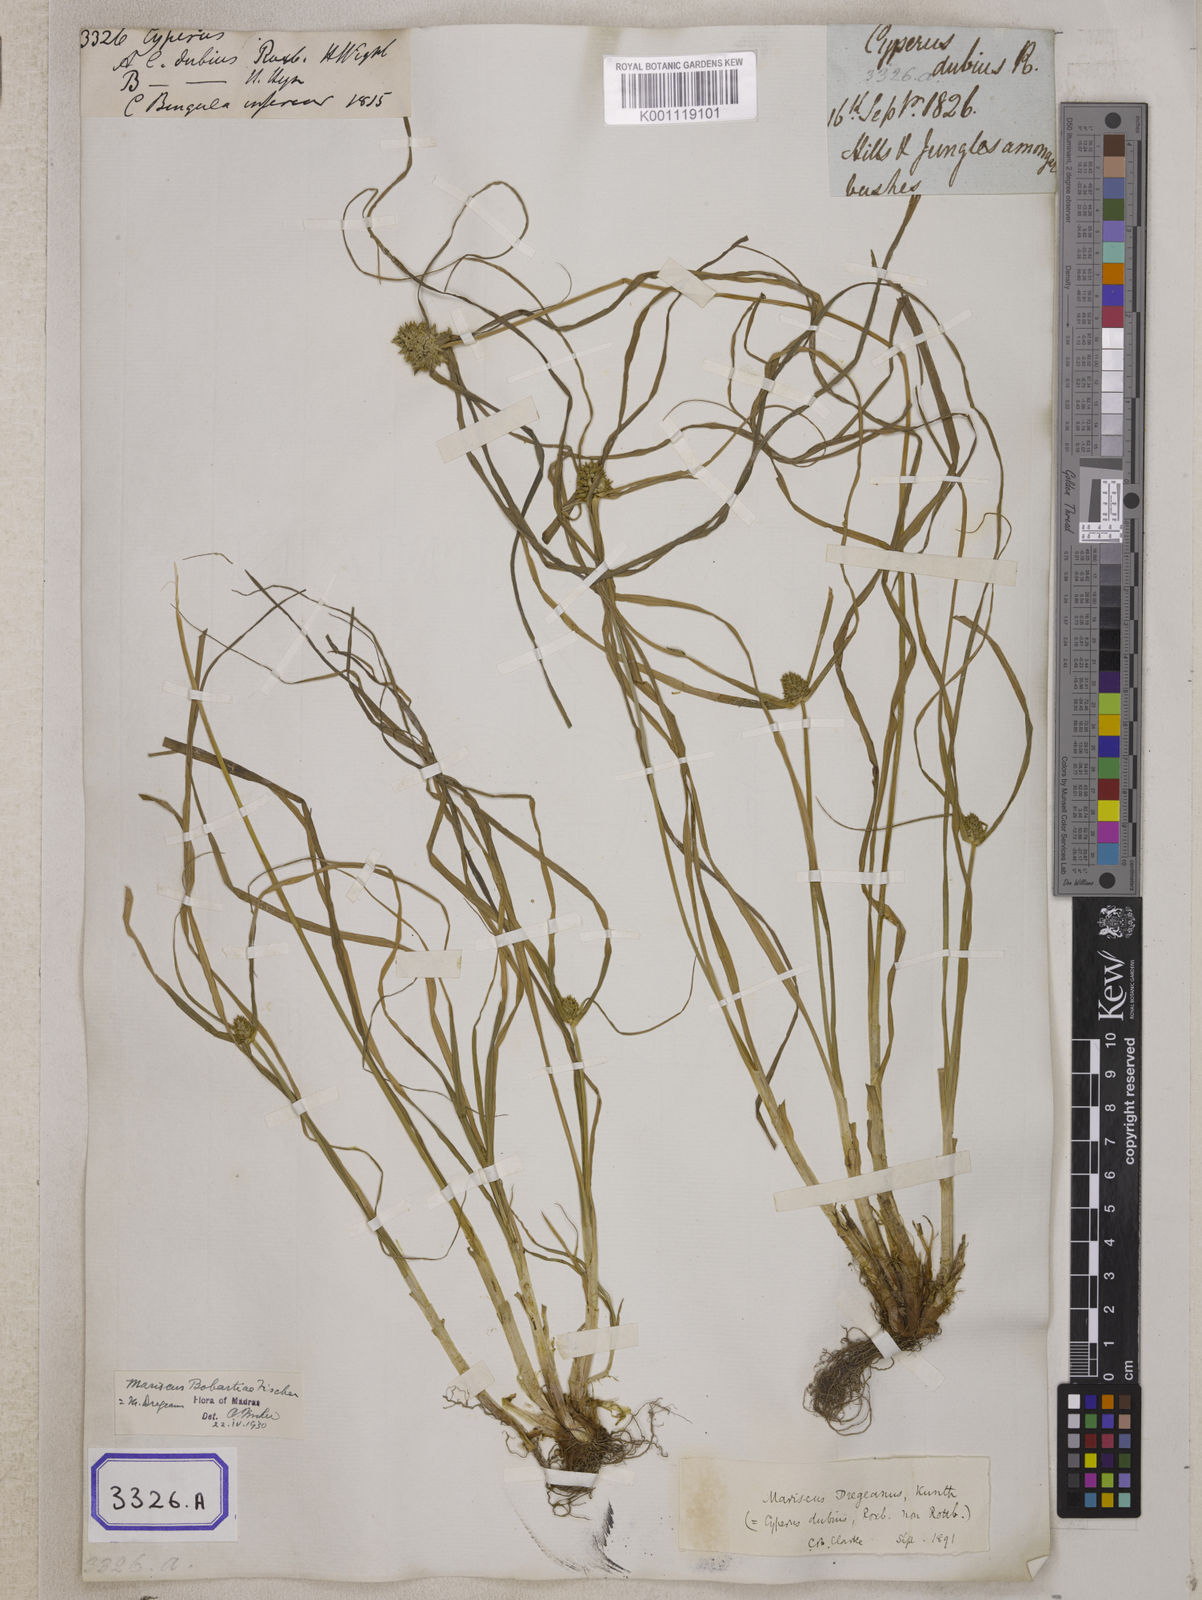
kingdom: Plantae
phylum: Tracheophyta
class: Liliopsida
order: Poales
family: Cyperaceae
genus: Cyperus
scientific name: Cyperus
